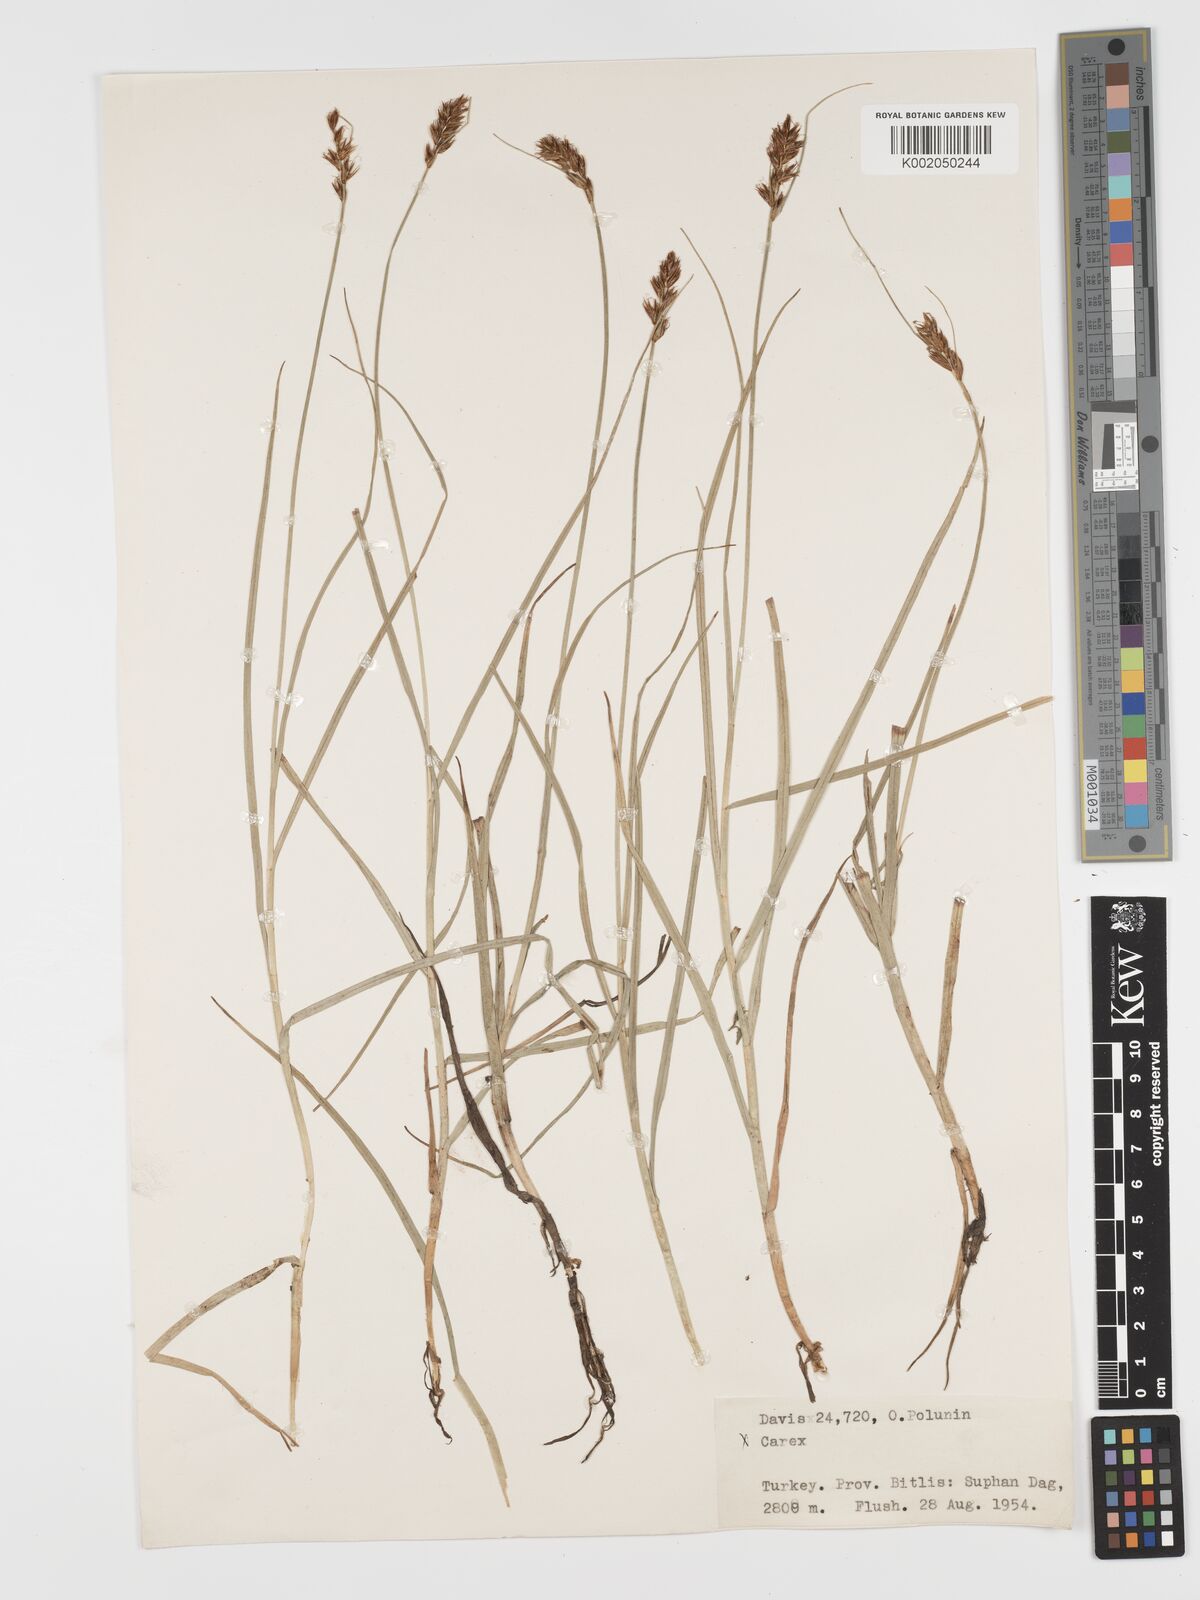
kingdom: Plantae
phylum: Tracheophyta
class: Liliopsida
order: Poales
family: Cyperaceae
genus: Blysmus
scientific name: Blysmus compressus
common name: Flat-sedge
